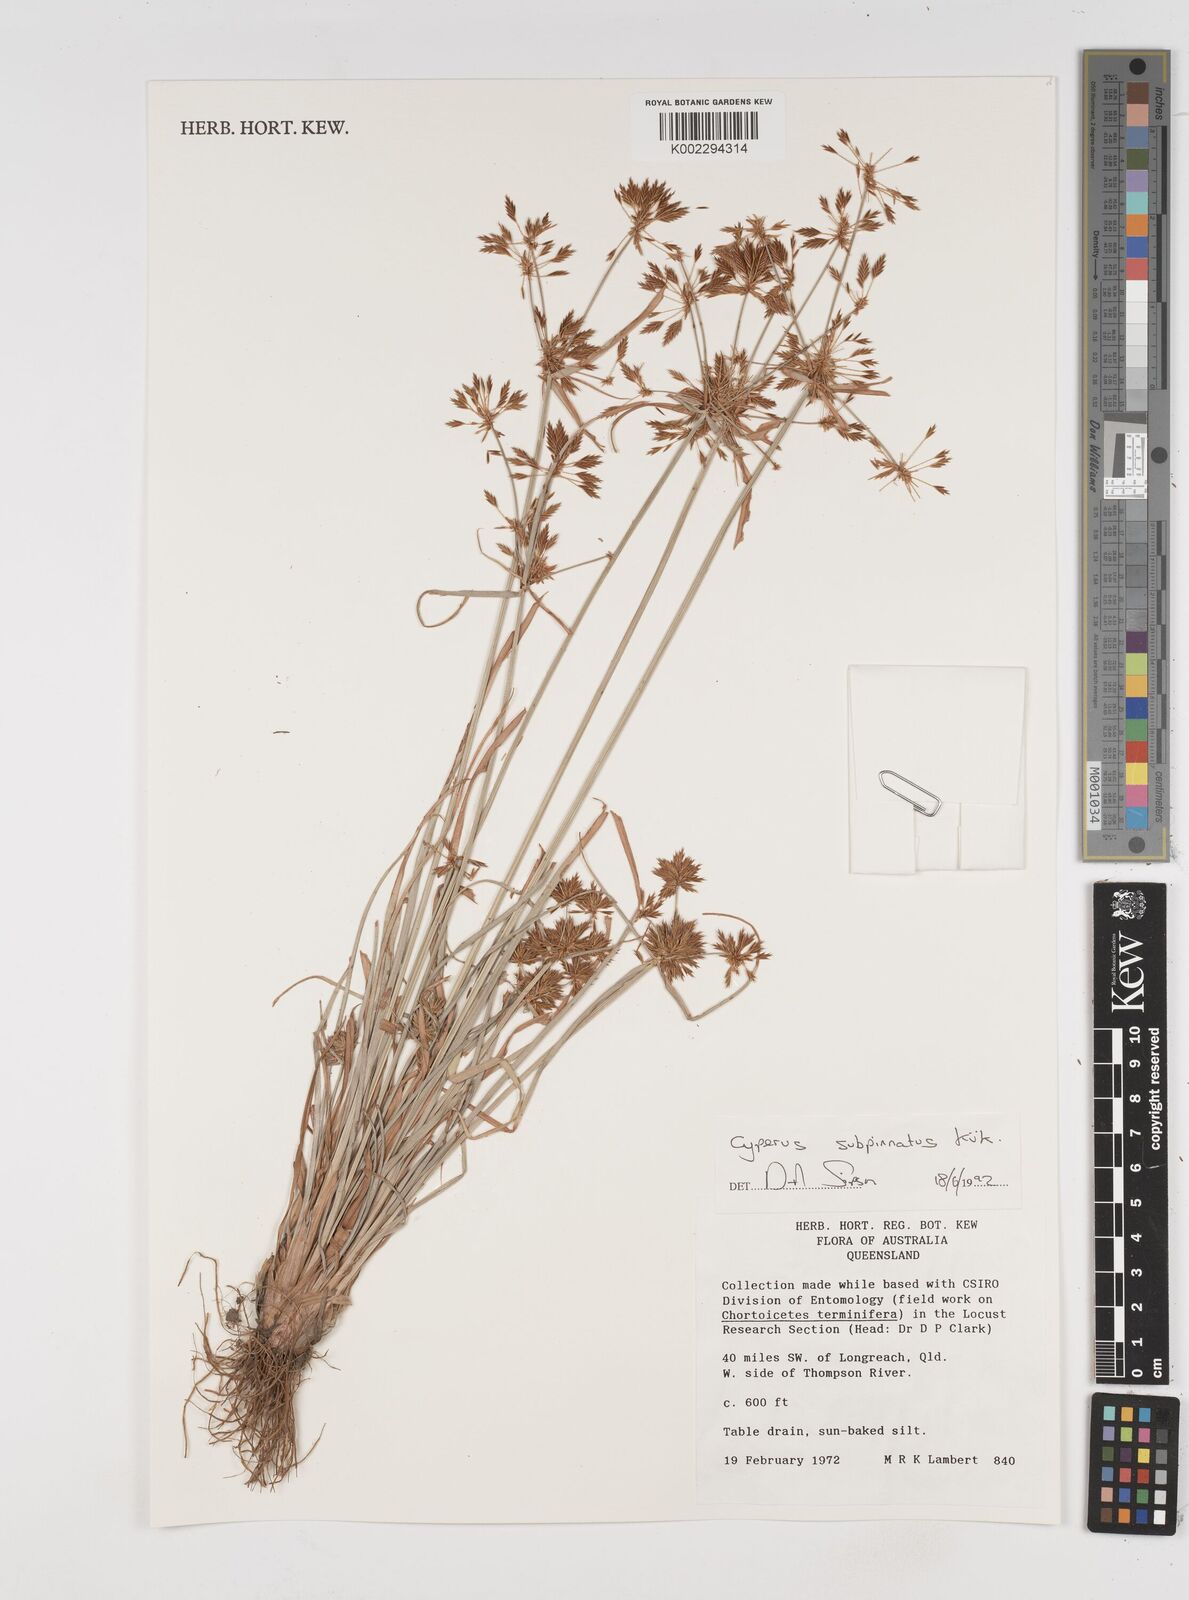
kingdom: Plantae
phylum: Tracheophyta
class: Liliopsida
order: Poales
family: Cyperaceae
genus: Cyperus
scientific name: Cyperus rigidellus
